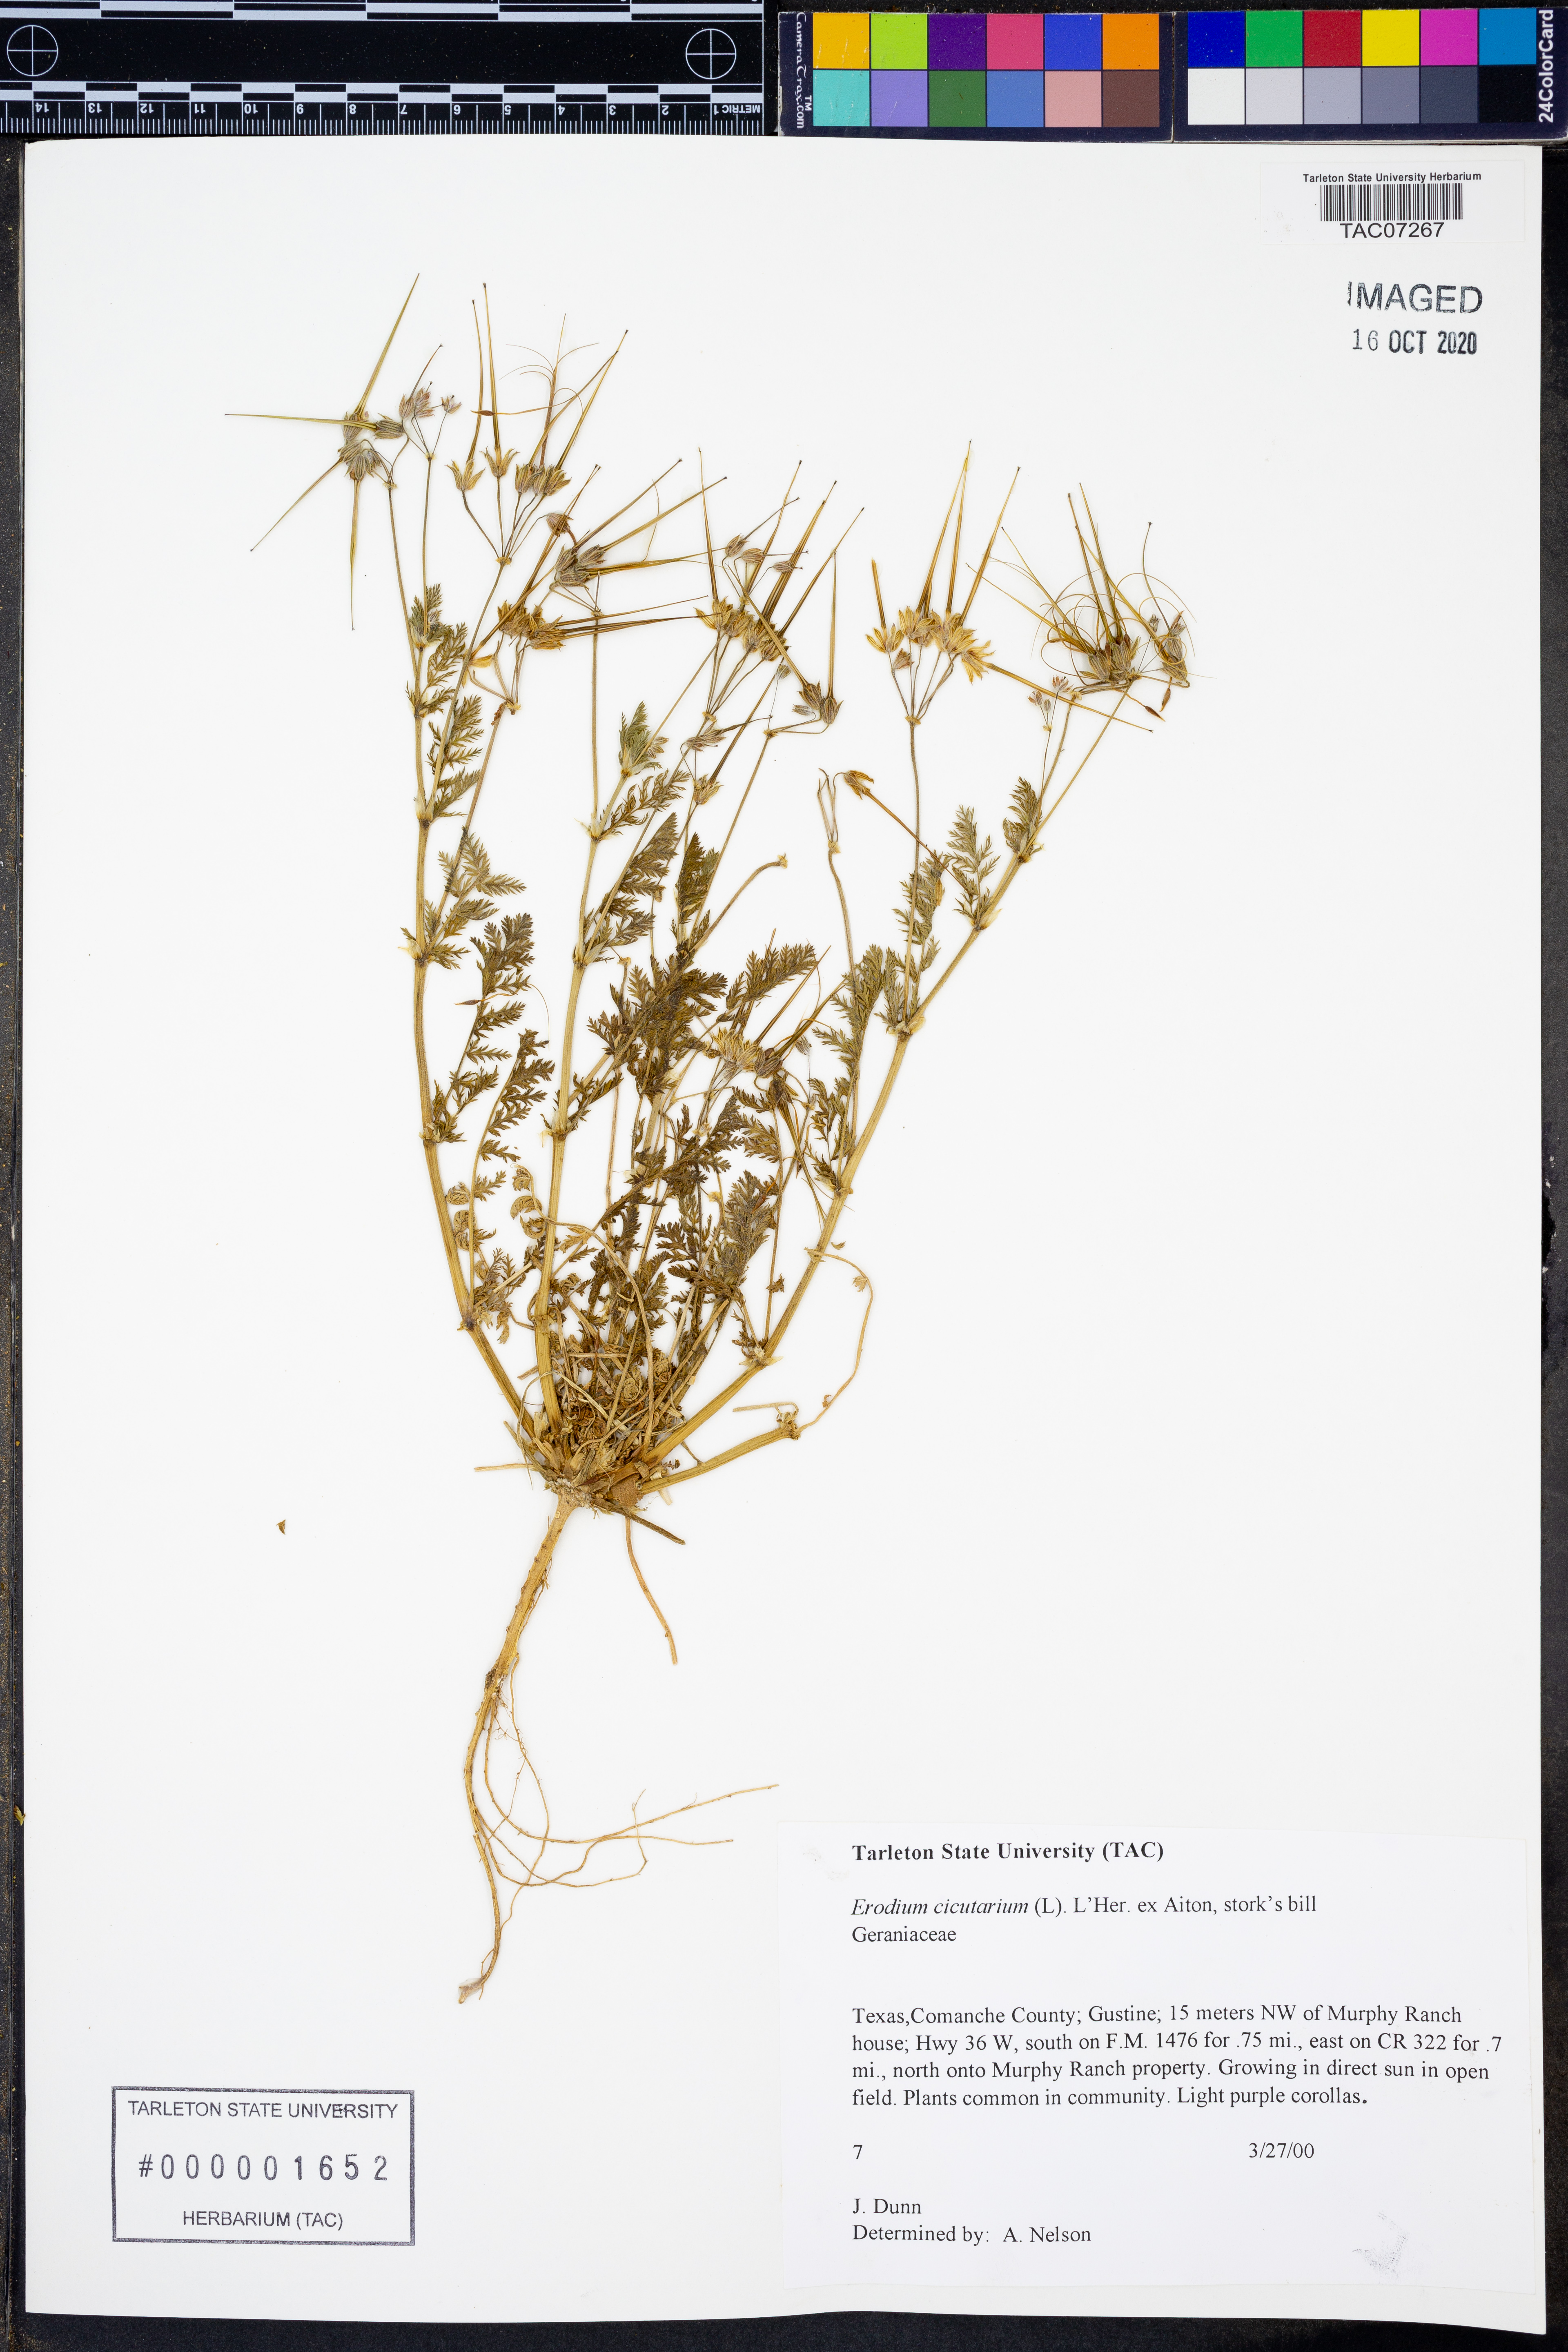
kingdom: Plantae
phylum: Tracheophyta
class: Magnoliopsida
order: Geraniales
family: Geraniaceae
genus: Erodium
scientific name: Erodium cicutarium
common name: Common stork's-bill
